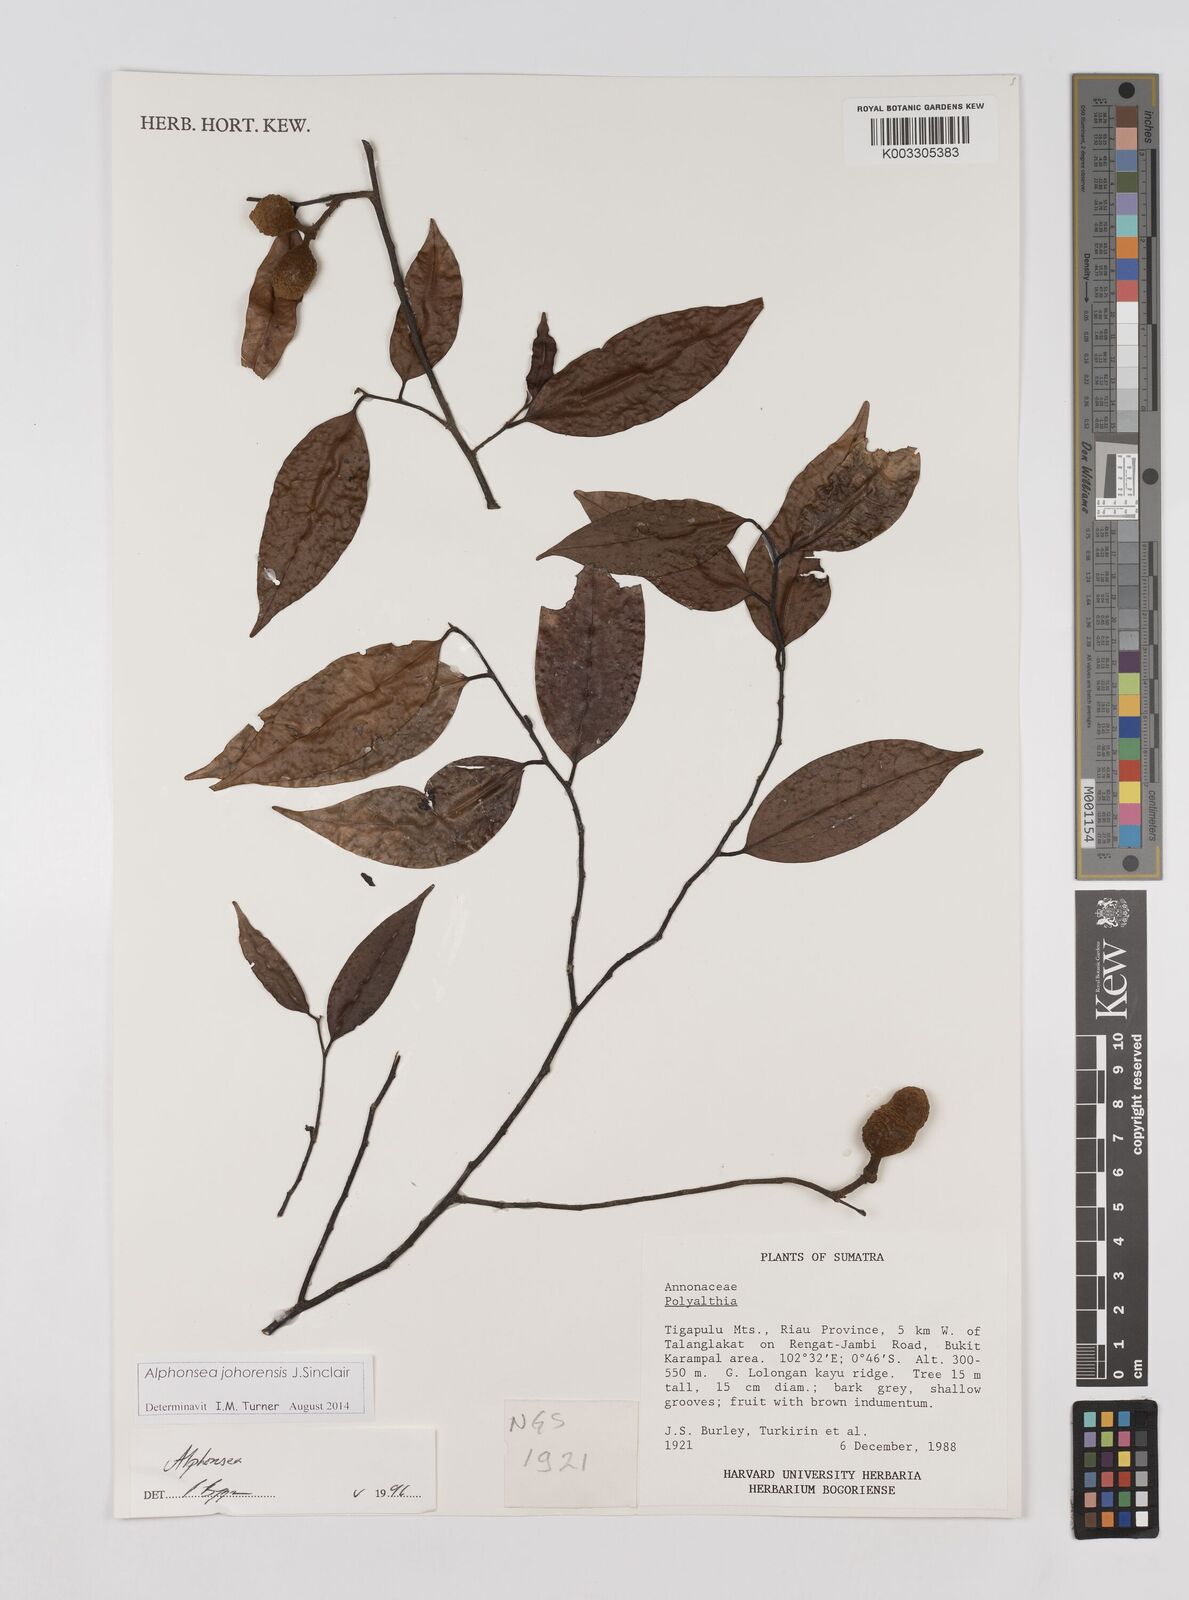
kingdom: Plantae
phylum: Tracheophyta
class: Magnoliopsida
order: Magnoliales
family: Annonaceae
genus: Alphonsea
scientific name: Alphonsea johorensis
